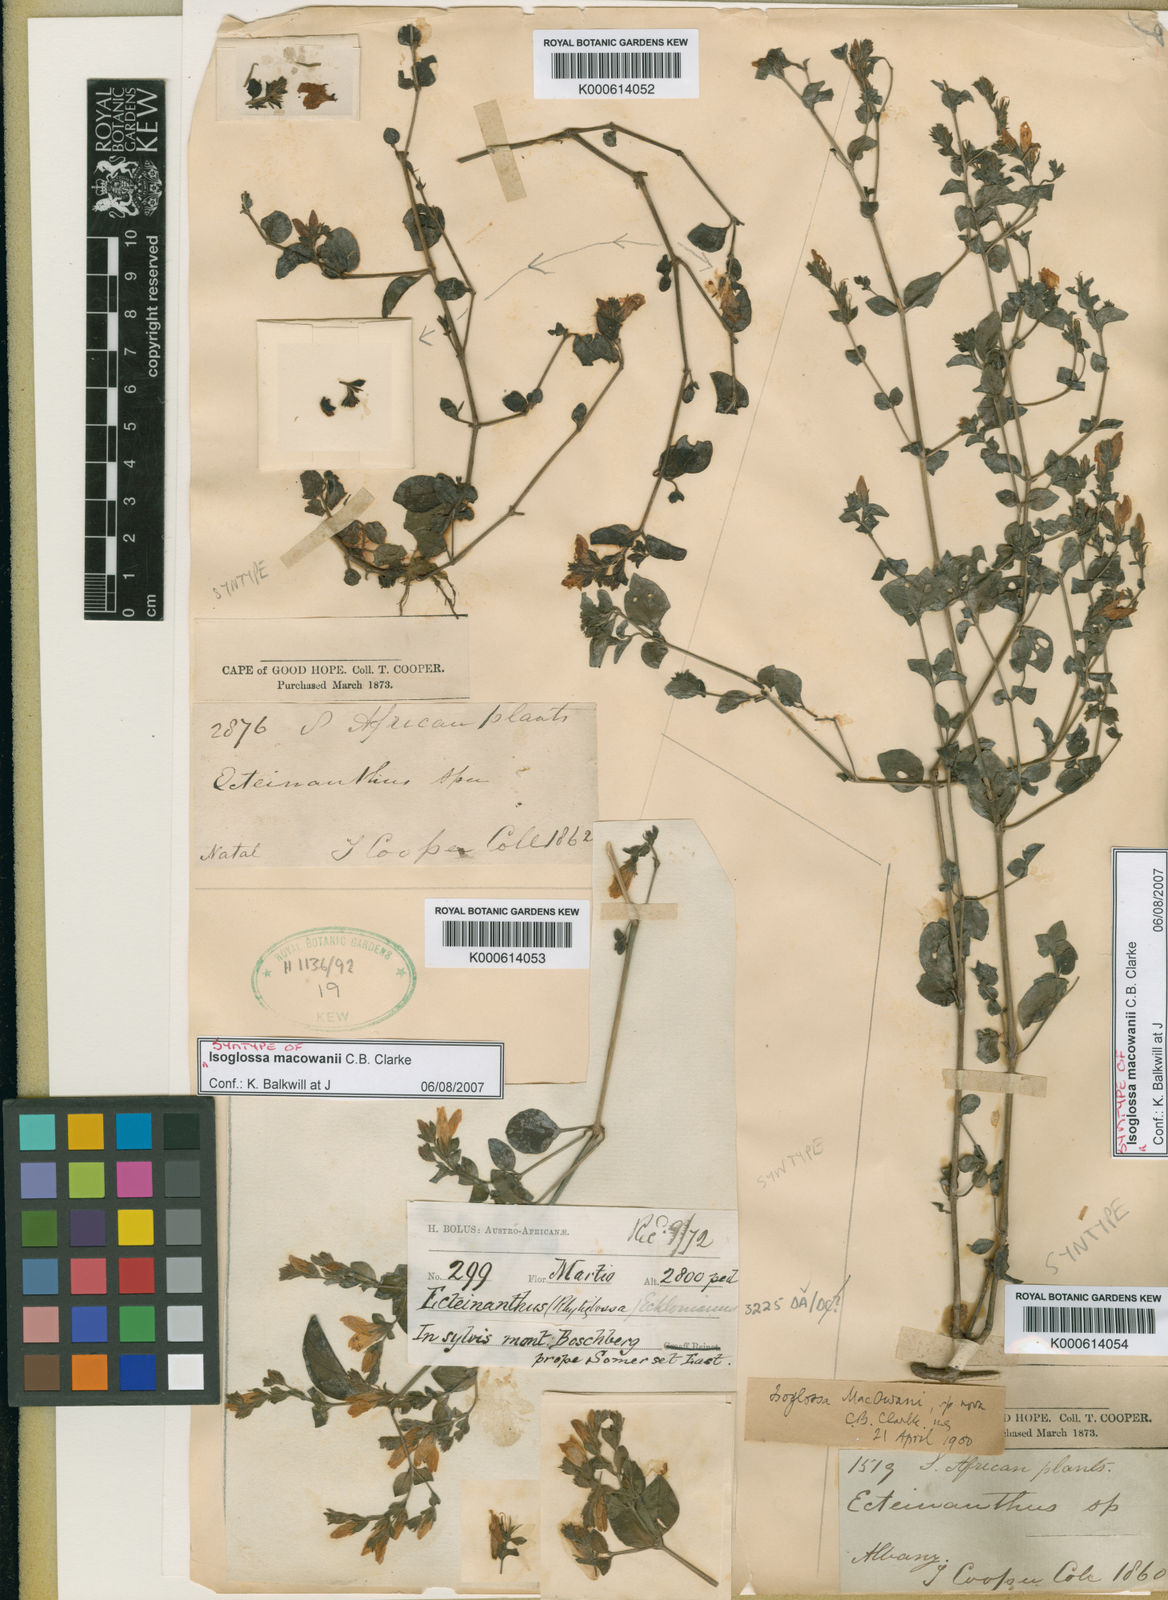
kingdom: Plantae
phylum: Tracheophyta
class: Magnoliopsida
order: Lamiales
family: Acanthaceae
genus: Isoglossa
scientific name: Isoglossa macowanii
